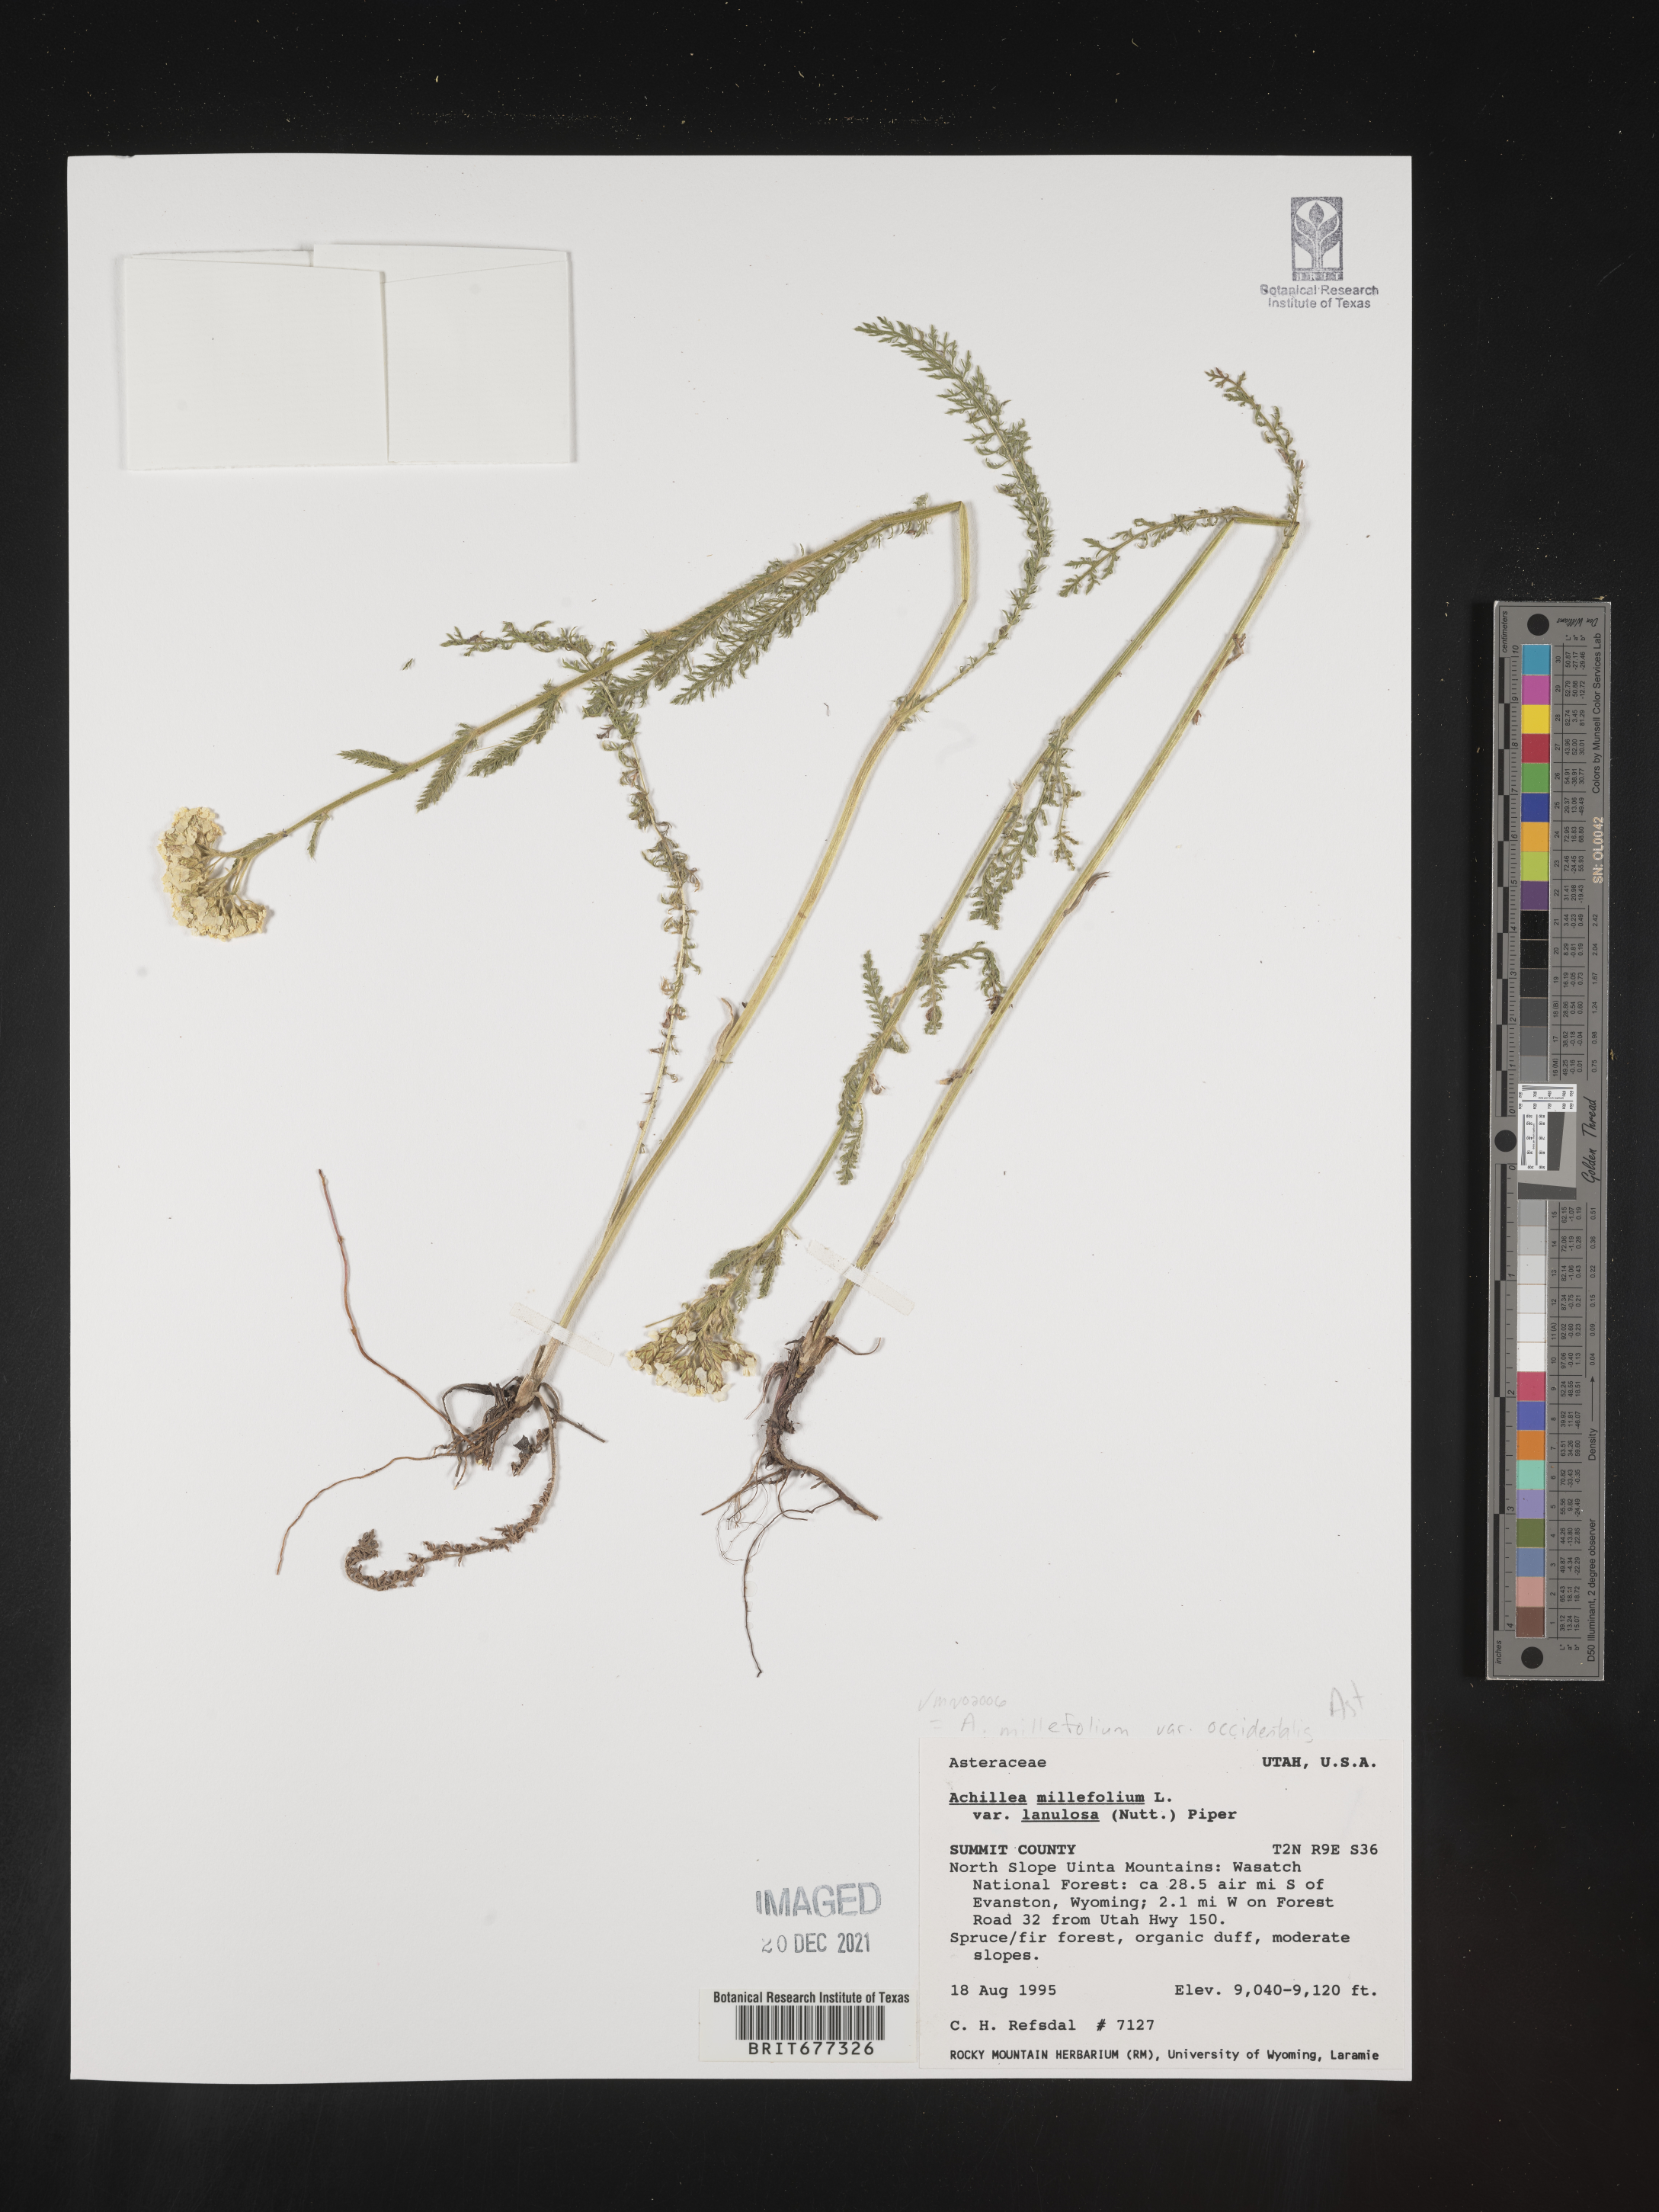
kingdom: Plantae
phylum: Tracheophyta
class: Magnoliopsida
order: Asterales
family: Asteraceae
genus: Achillea
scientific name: Achillea millefolium
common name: Yarrow
